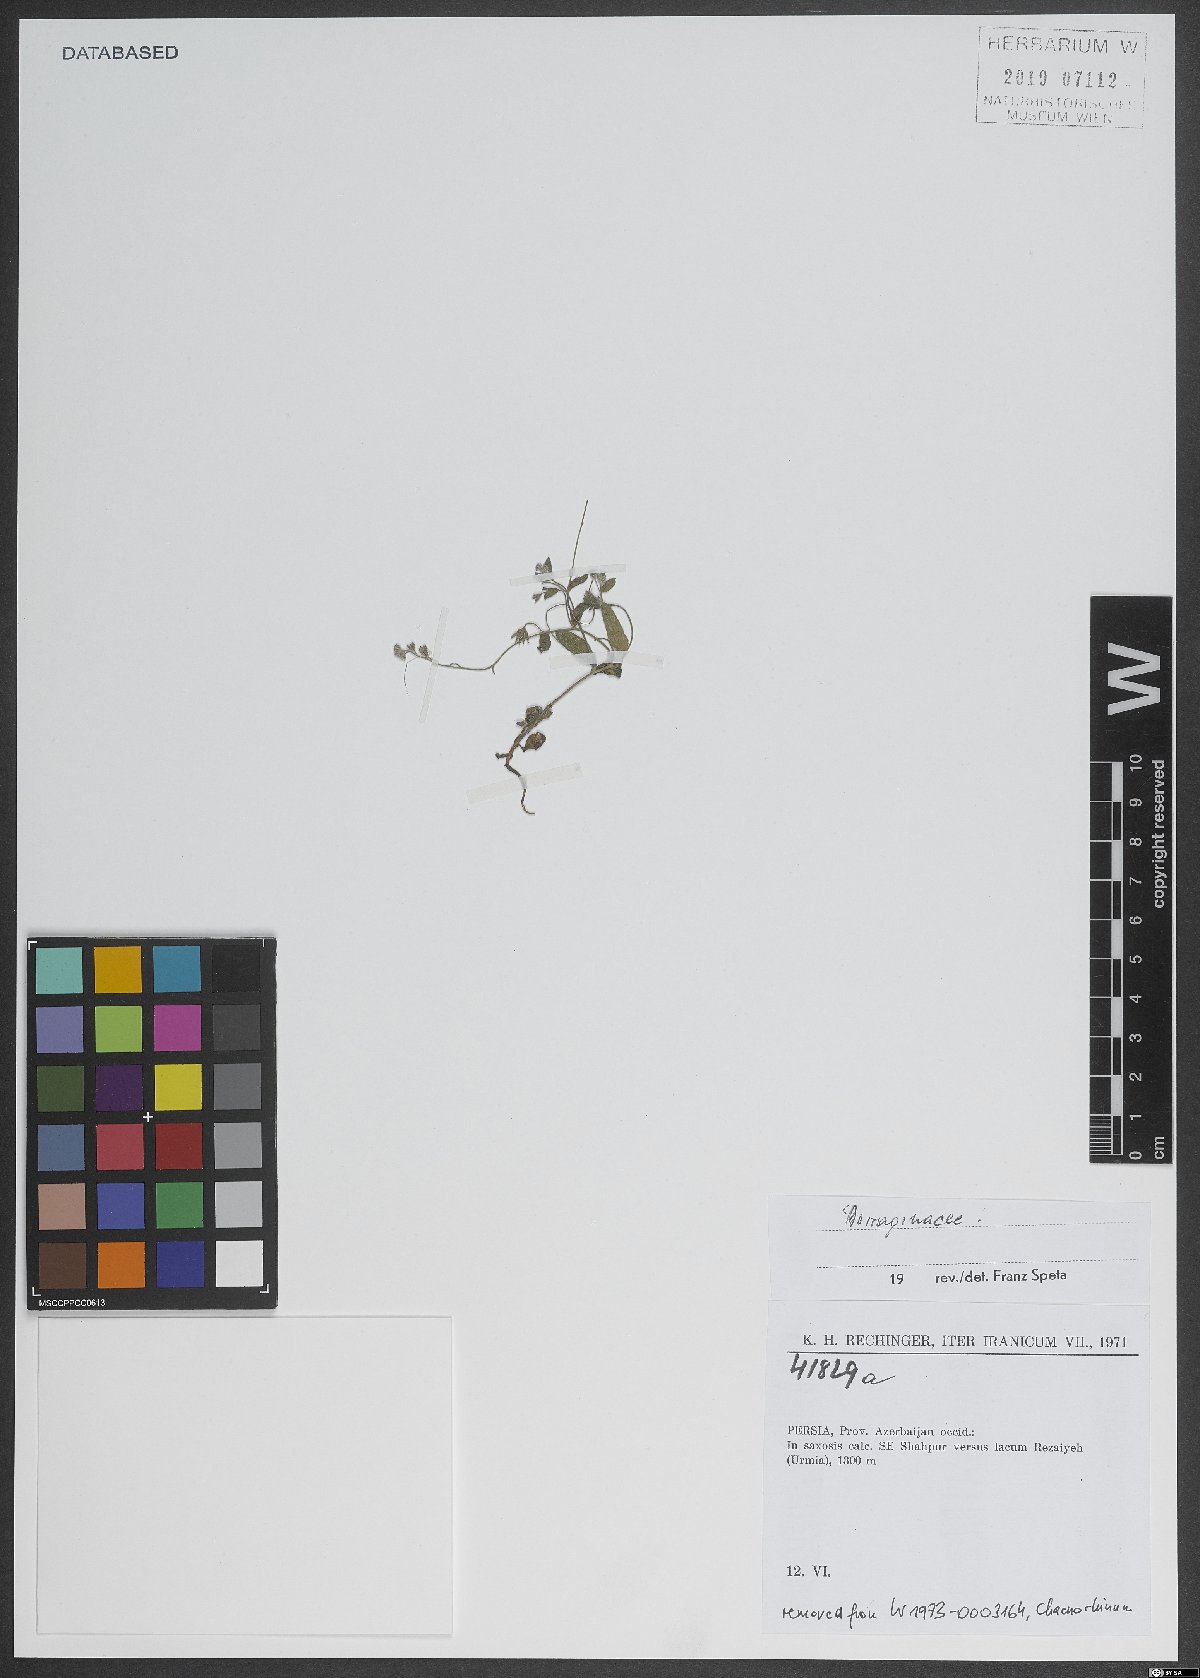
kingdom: Plantae
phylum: Tracheophyta
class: Magnoliopsida
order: Boraginales
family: Boraginaceae
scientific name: Boraginaceae
